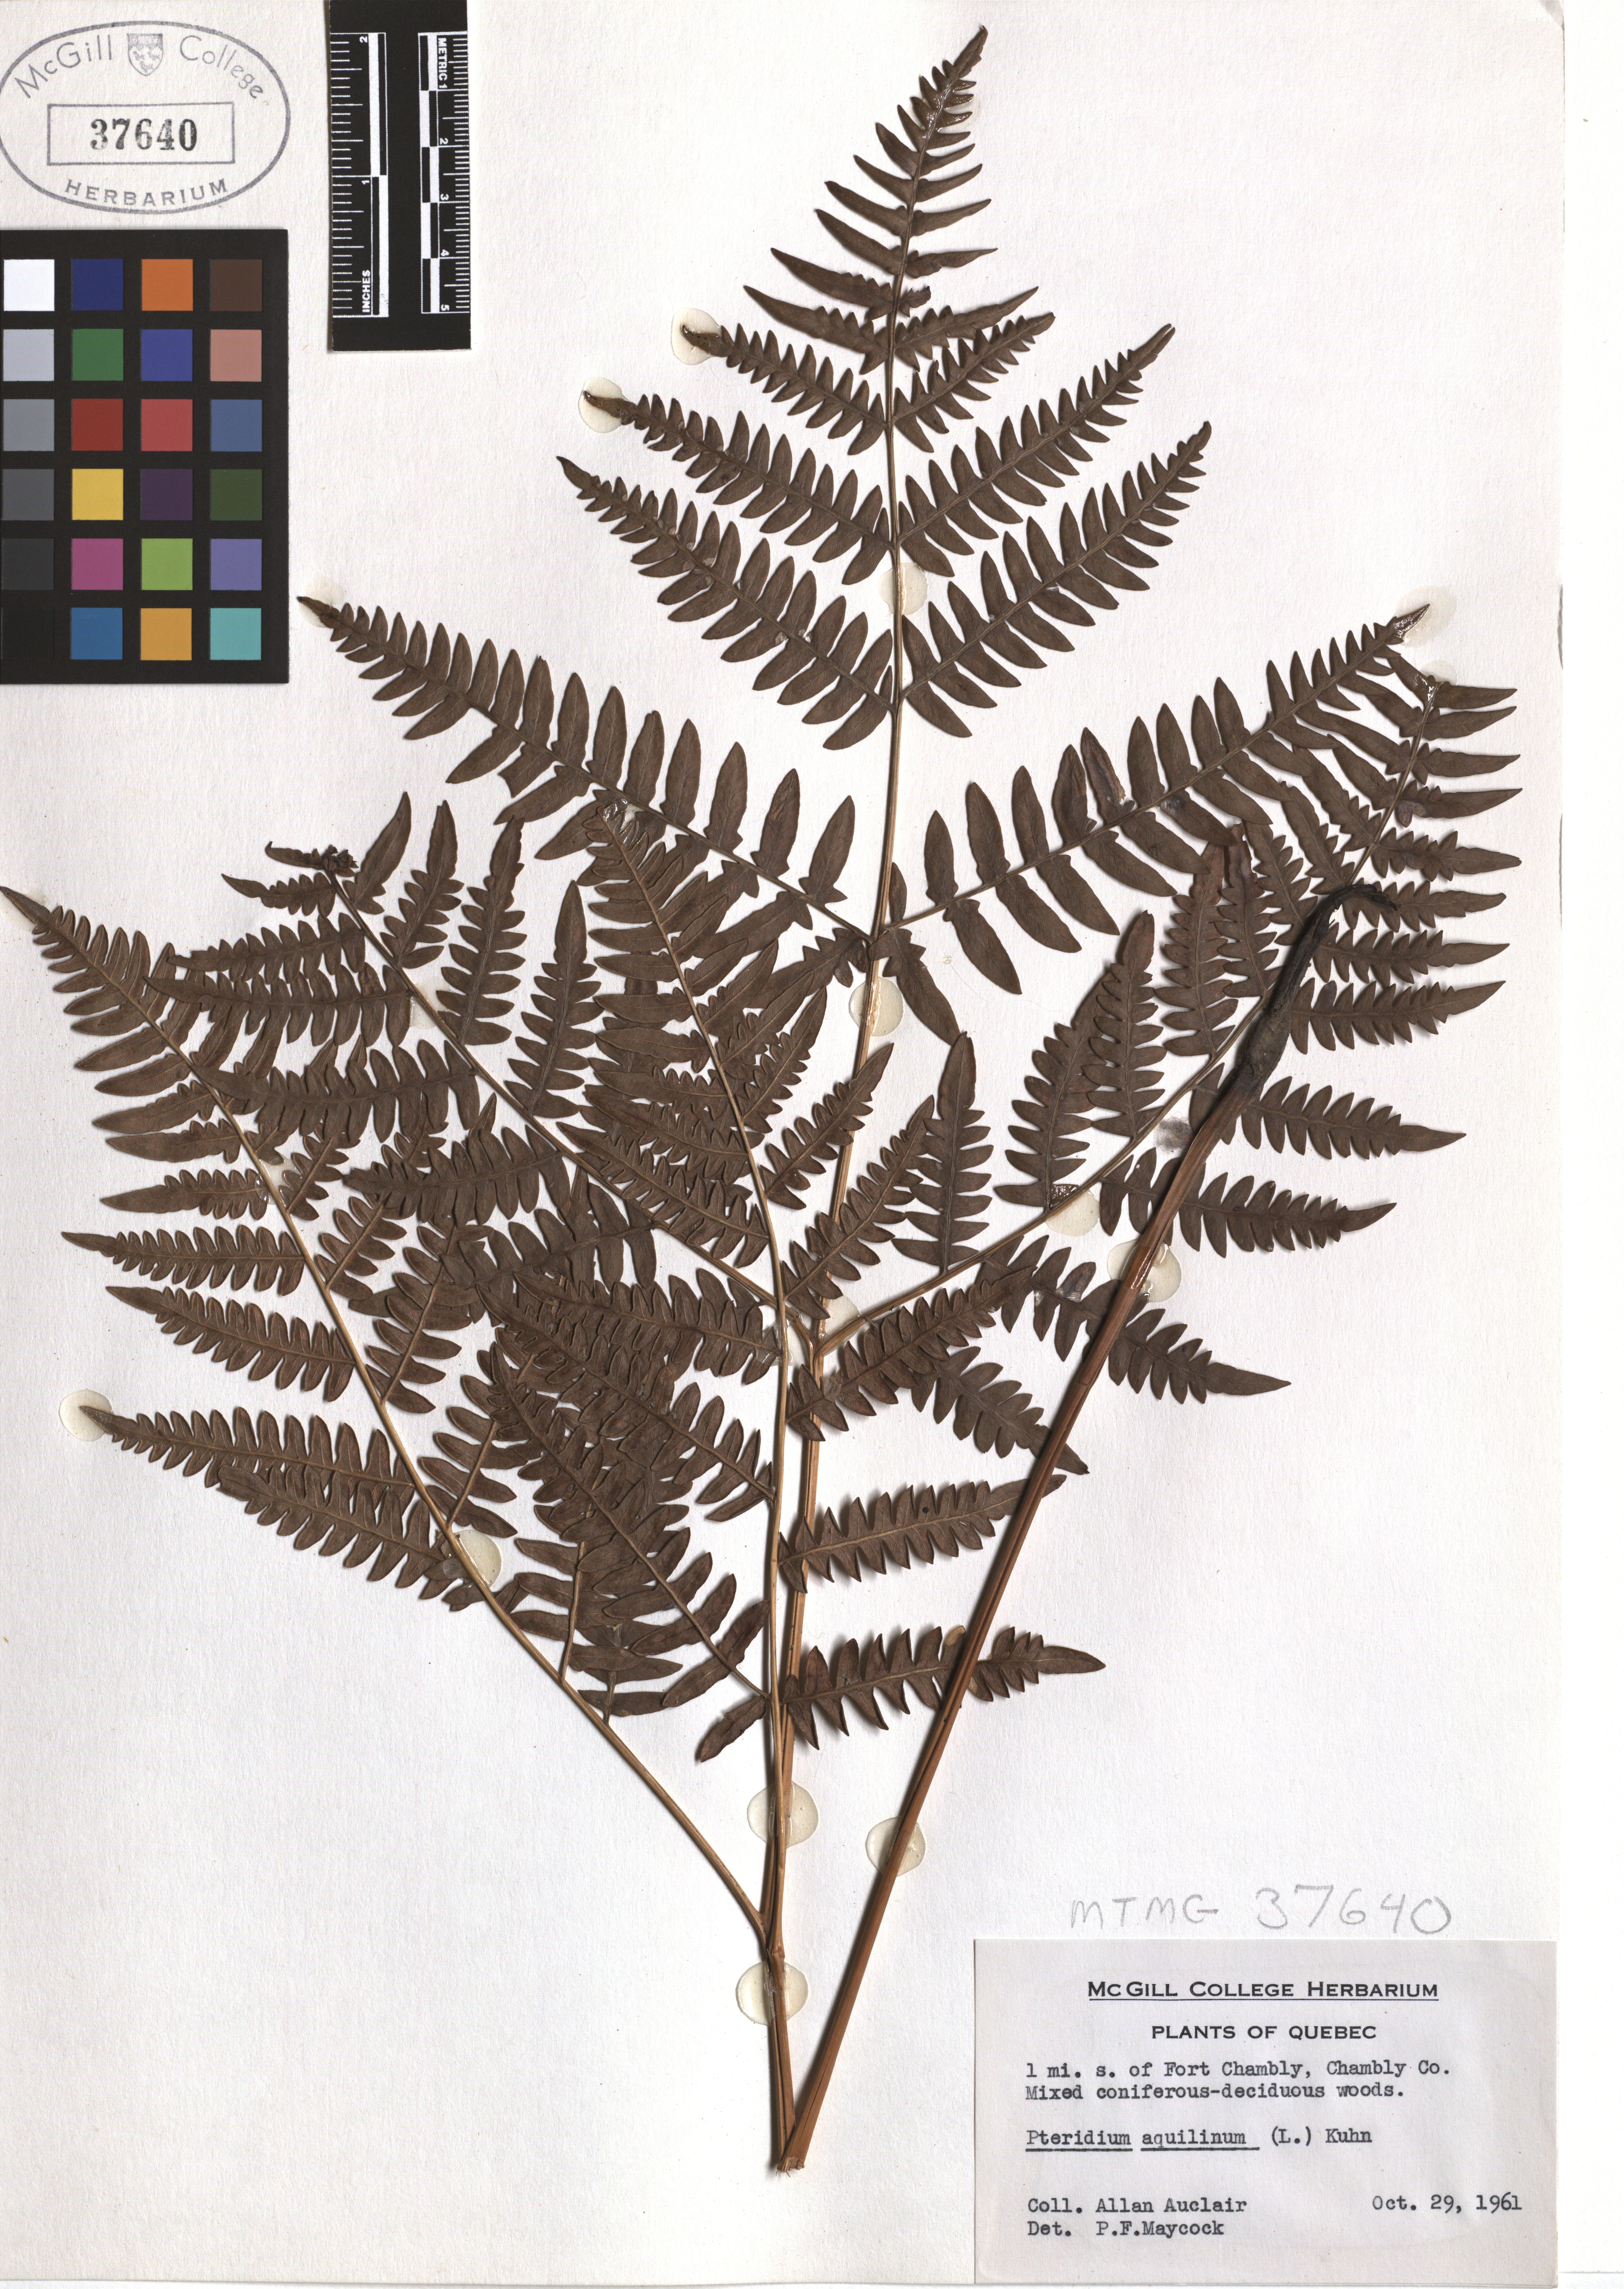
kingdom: Plantae
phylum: Tracheophyta
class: Polypodiopsida
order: Polypodiales
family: Dennstaedtiaceae
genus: Pteridium
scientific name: Pteridium aquilinum
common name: Bracken
